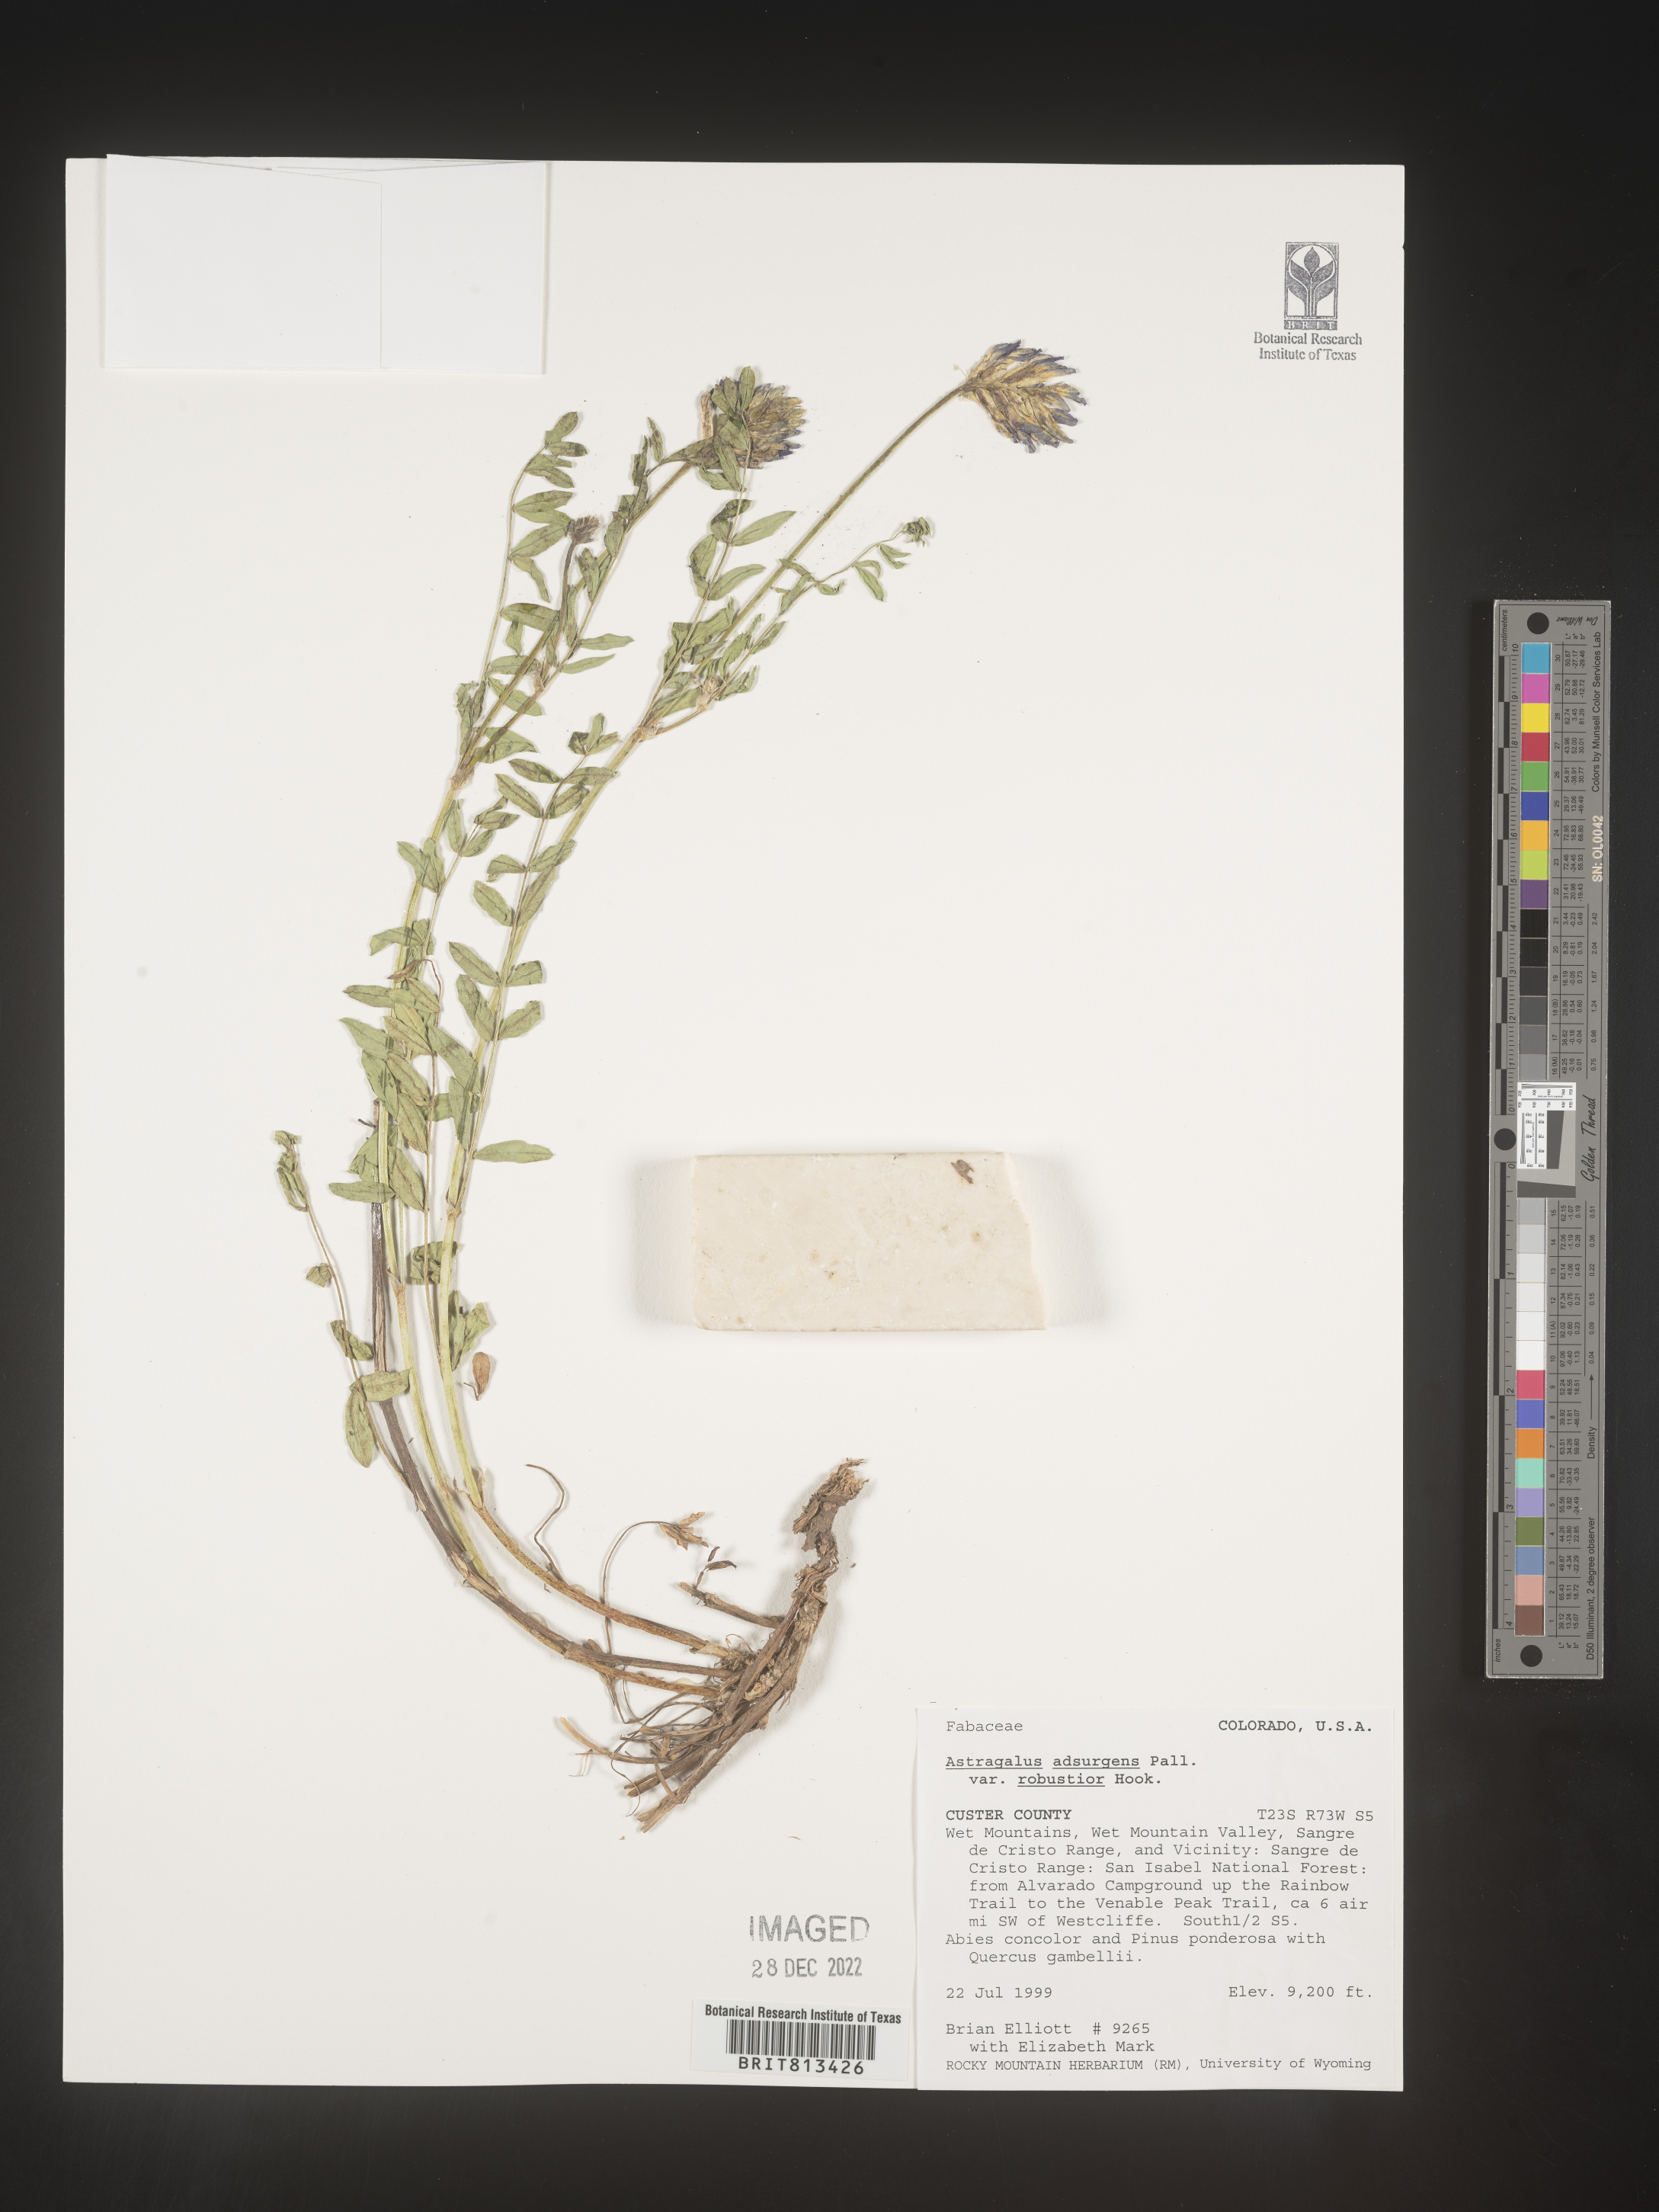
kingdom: Plantae
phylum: Tracheophyta
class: Magnoliopsida
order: Fabales
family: Fabaceae
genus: Astragalus
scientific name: Astragalus
